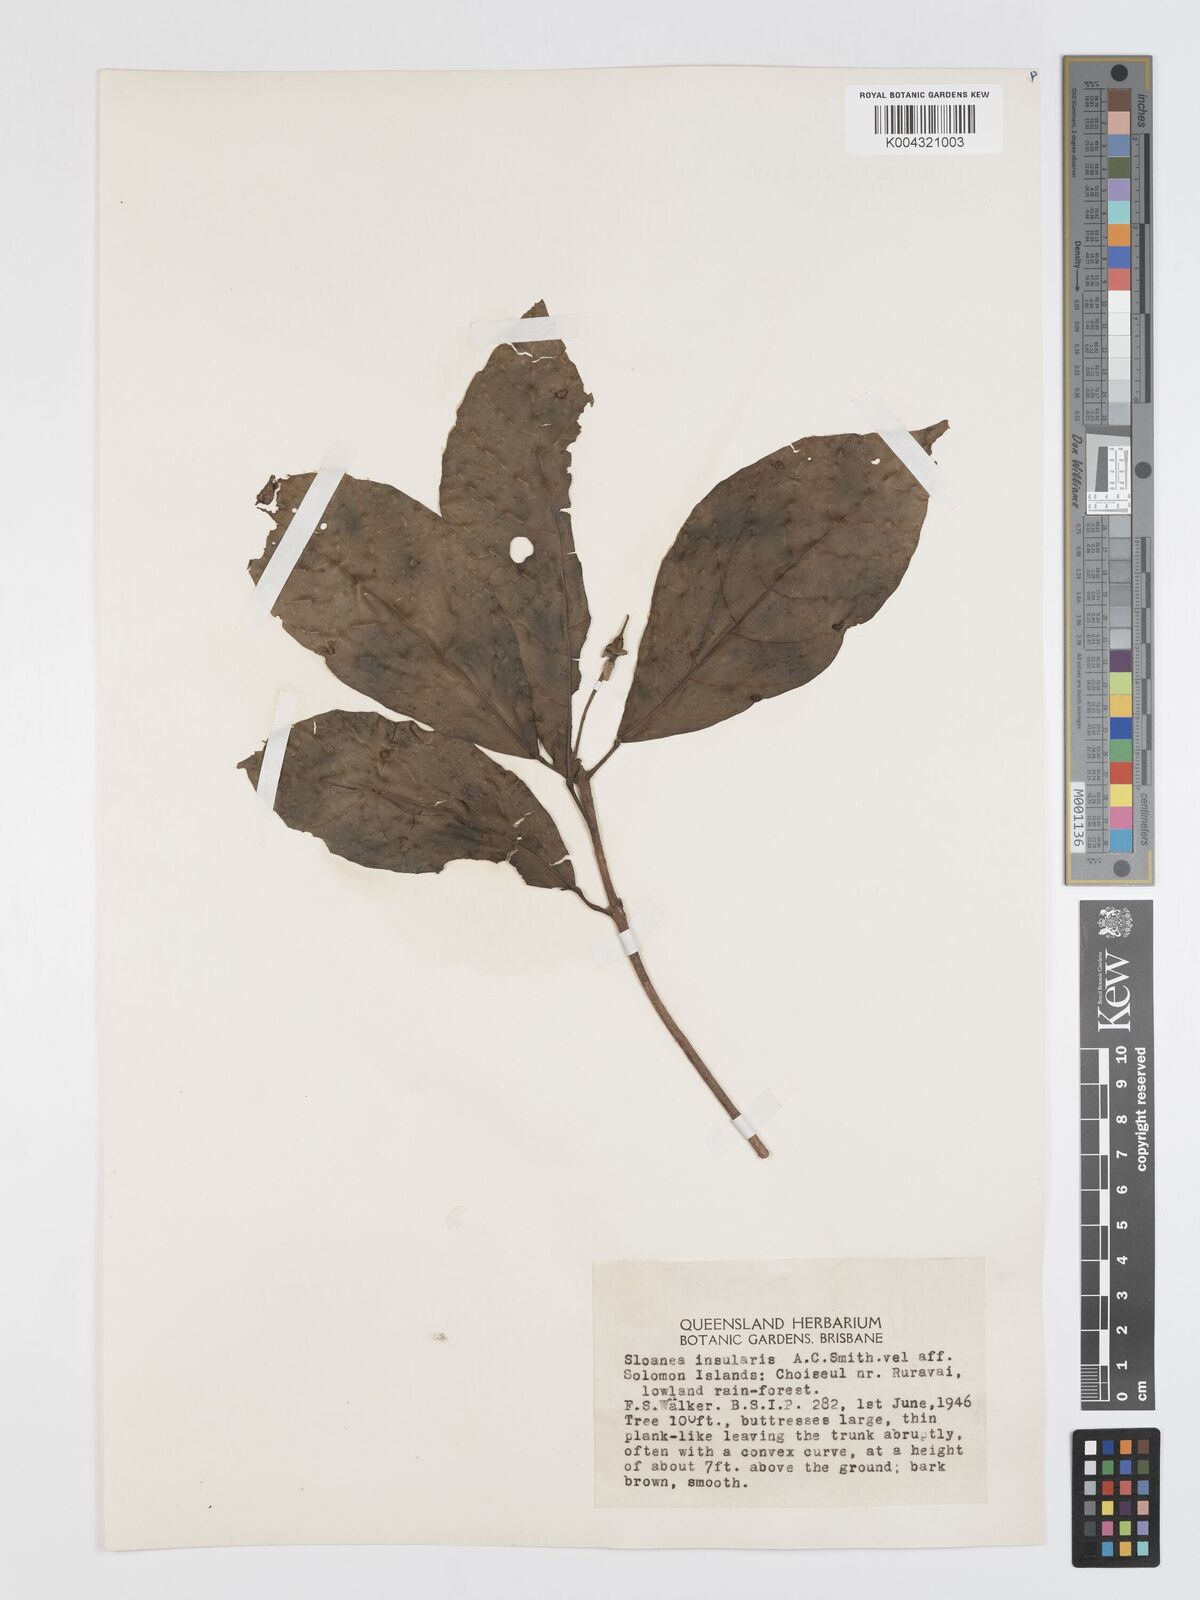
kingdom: Plantae
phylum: Tracheophyta
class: Magnoliopsida
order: Oxalidales
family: Elaeocarpaceae
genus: Sloanea
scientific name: Sloanea insularis
